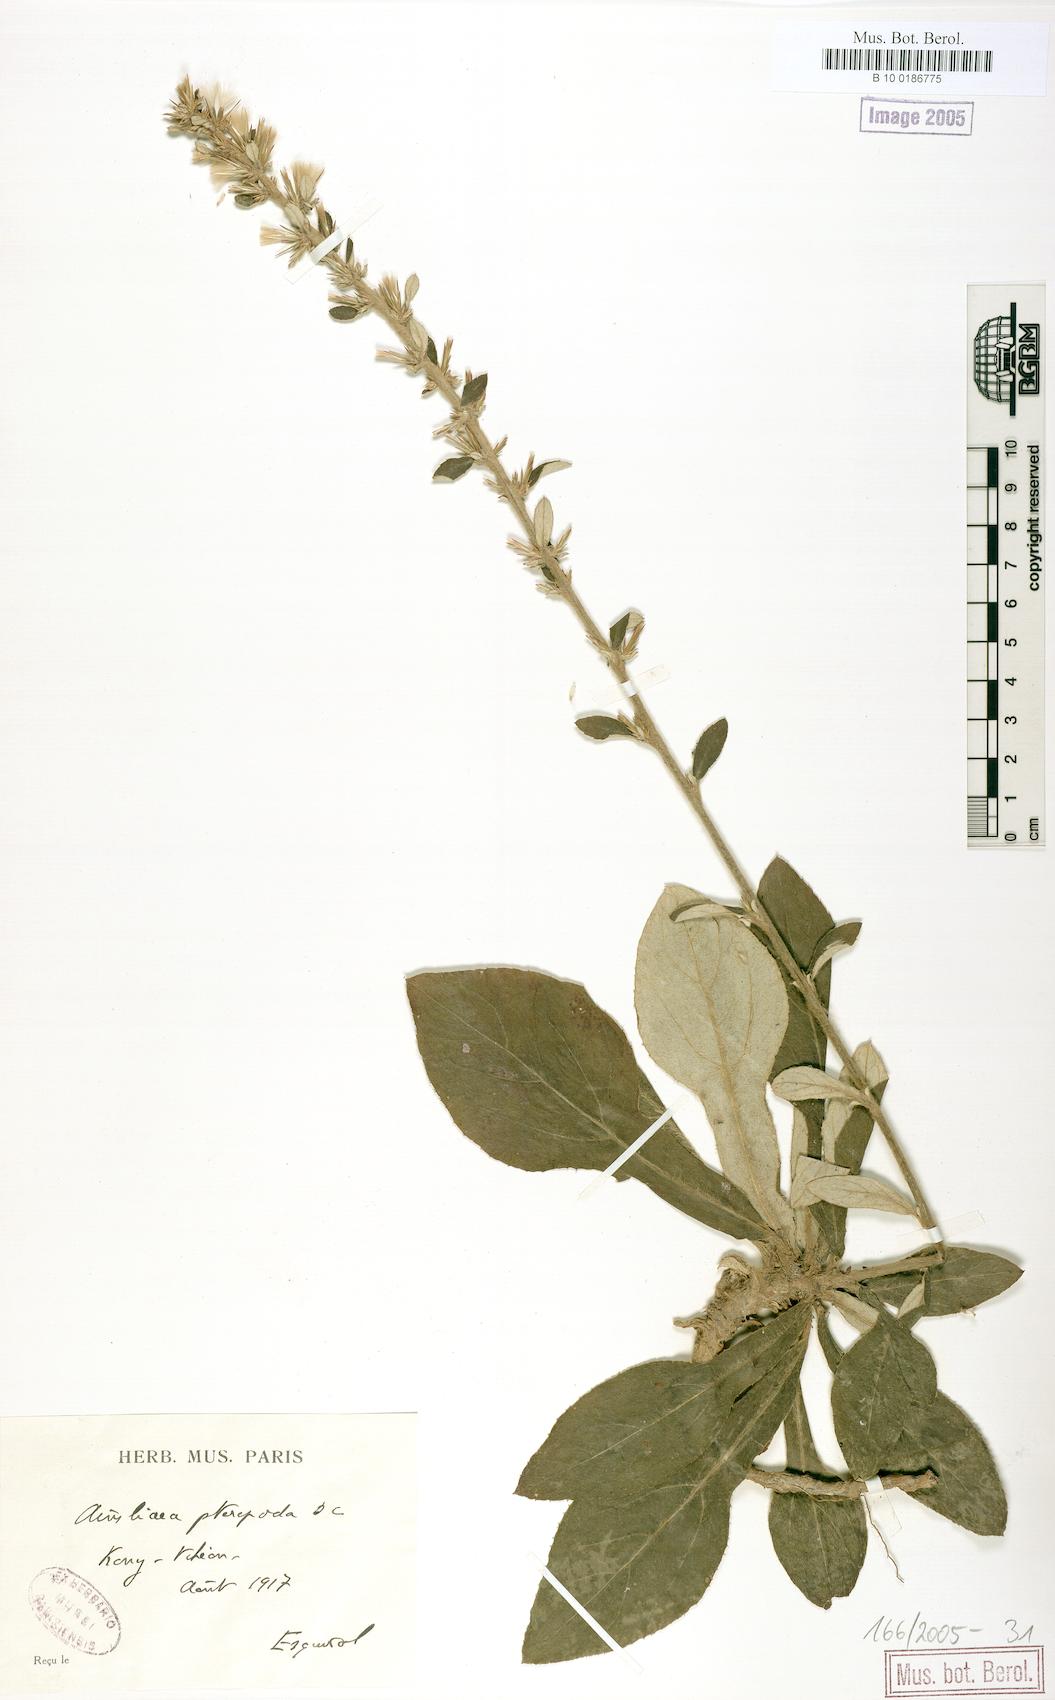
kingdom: Plantae
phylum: Tracheophyta
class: Magnoliopsida
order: Asterales
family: Asteraceae
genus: Ainsliaea
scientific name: Ainsliaea latifolia
